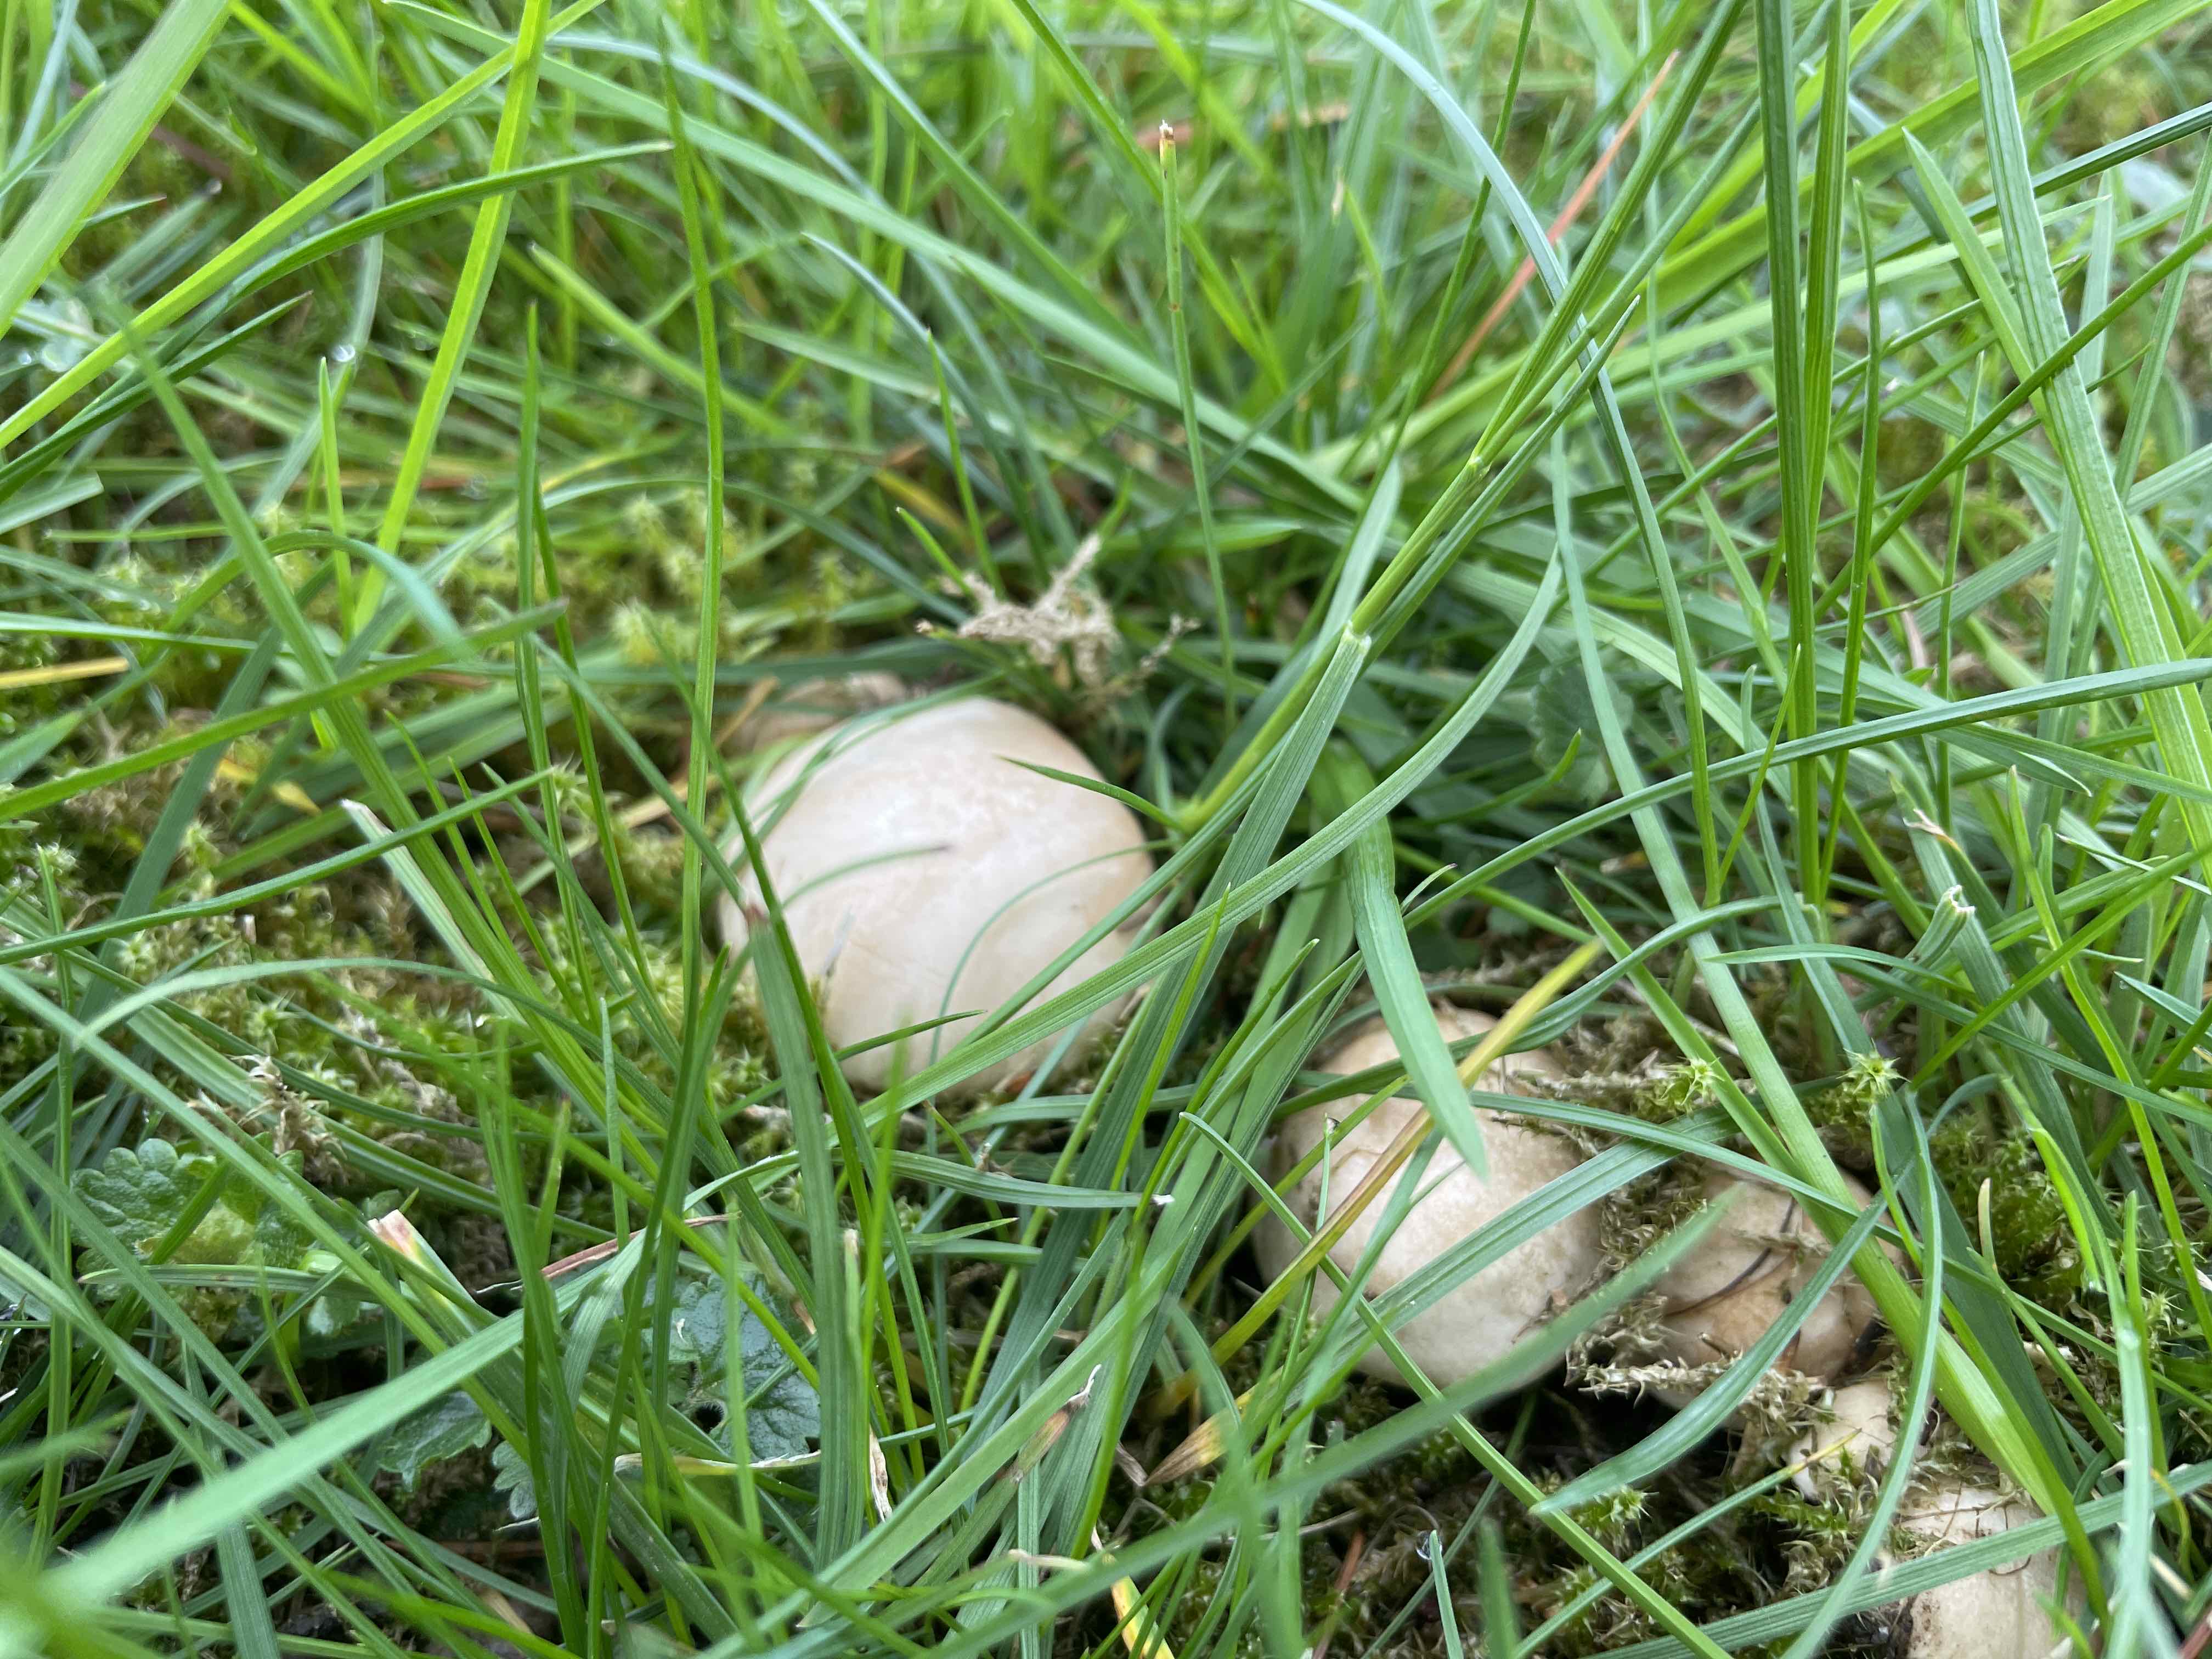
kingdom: Fungi
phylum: Basidiomycota
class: Agaricomycetes
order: Agaricales
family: Lyophyllaceae
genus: Calocybe
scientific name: Calocybe gambosa
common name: vårmusseron
